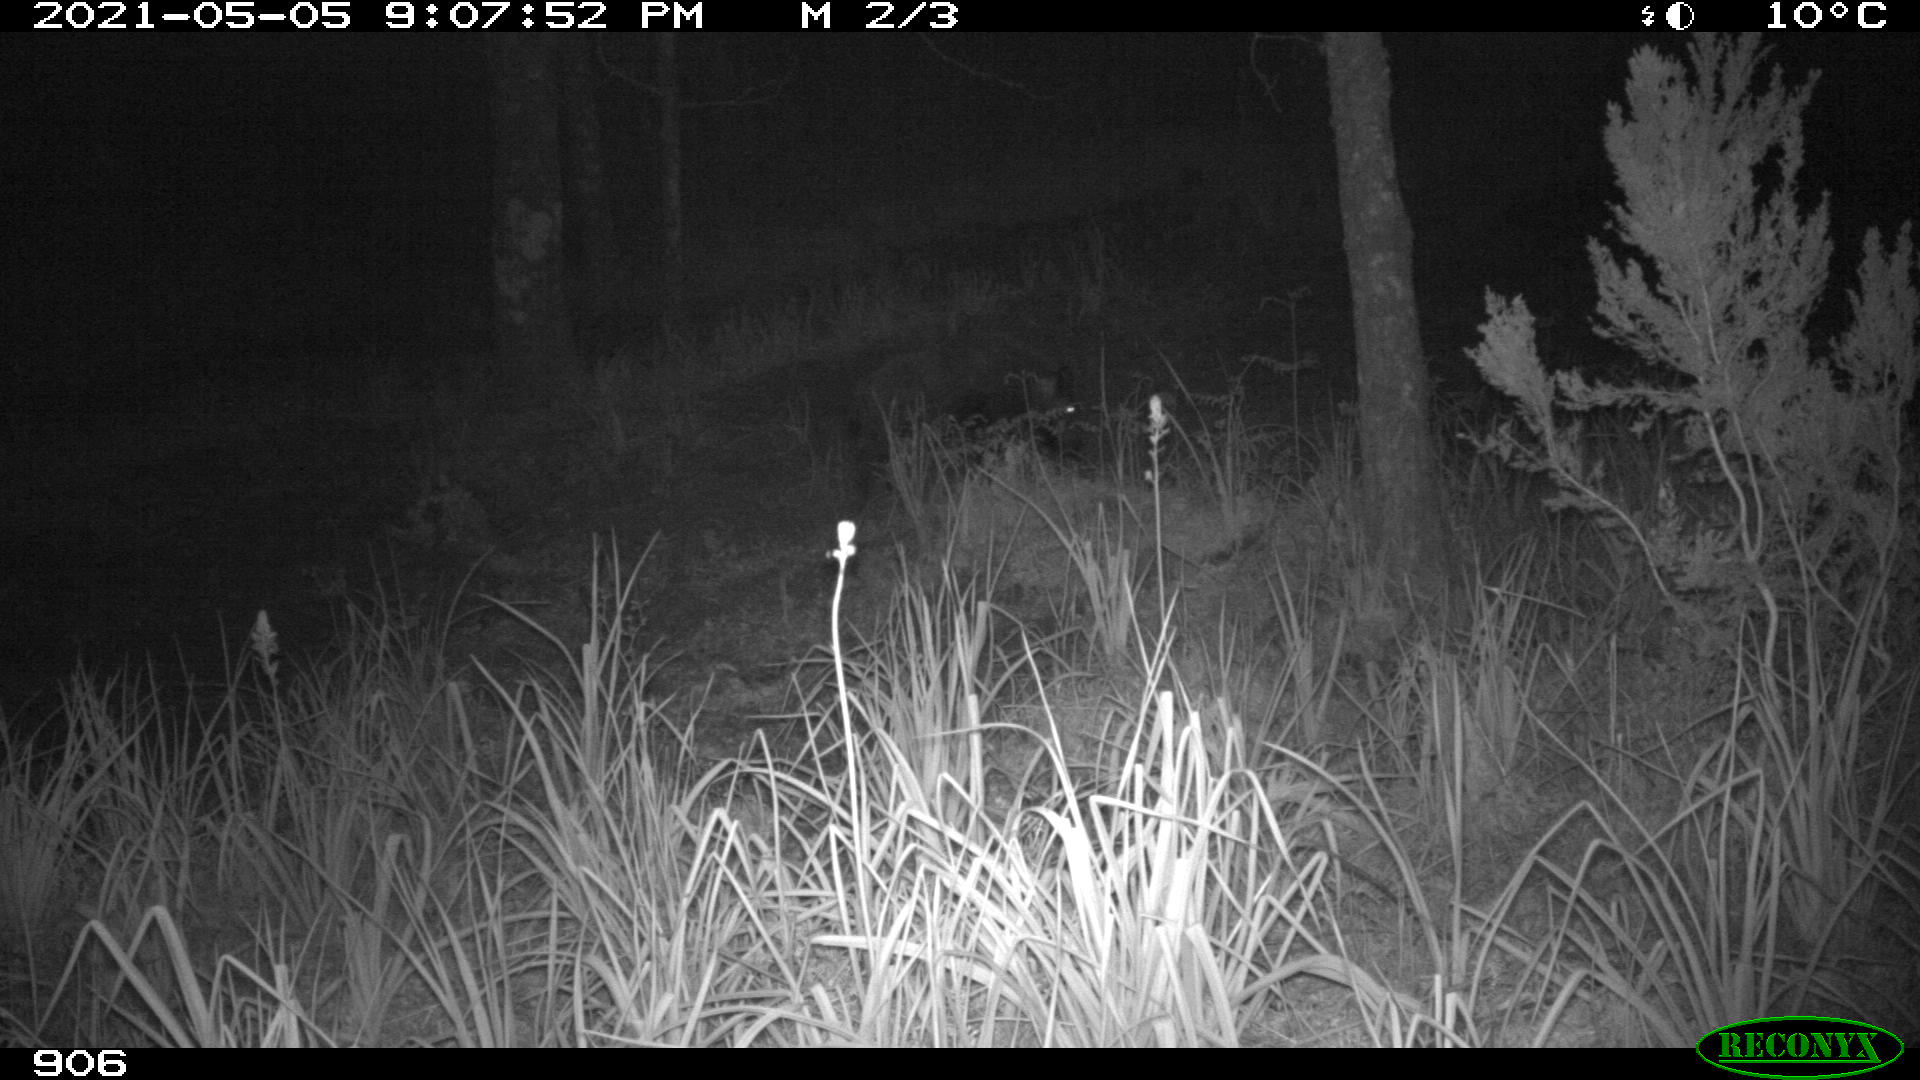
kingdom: Animalia
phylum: Chordata
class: Mammalia
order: Artiodactyla
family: Suidae
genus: Sus
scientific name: Sus scrofa
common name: Wild boar
